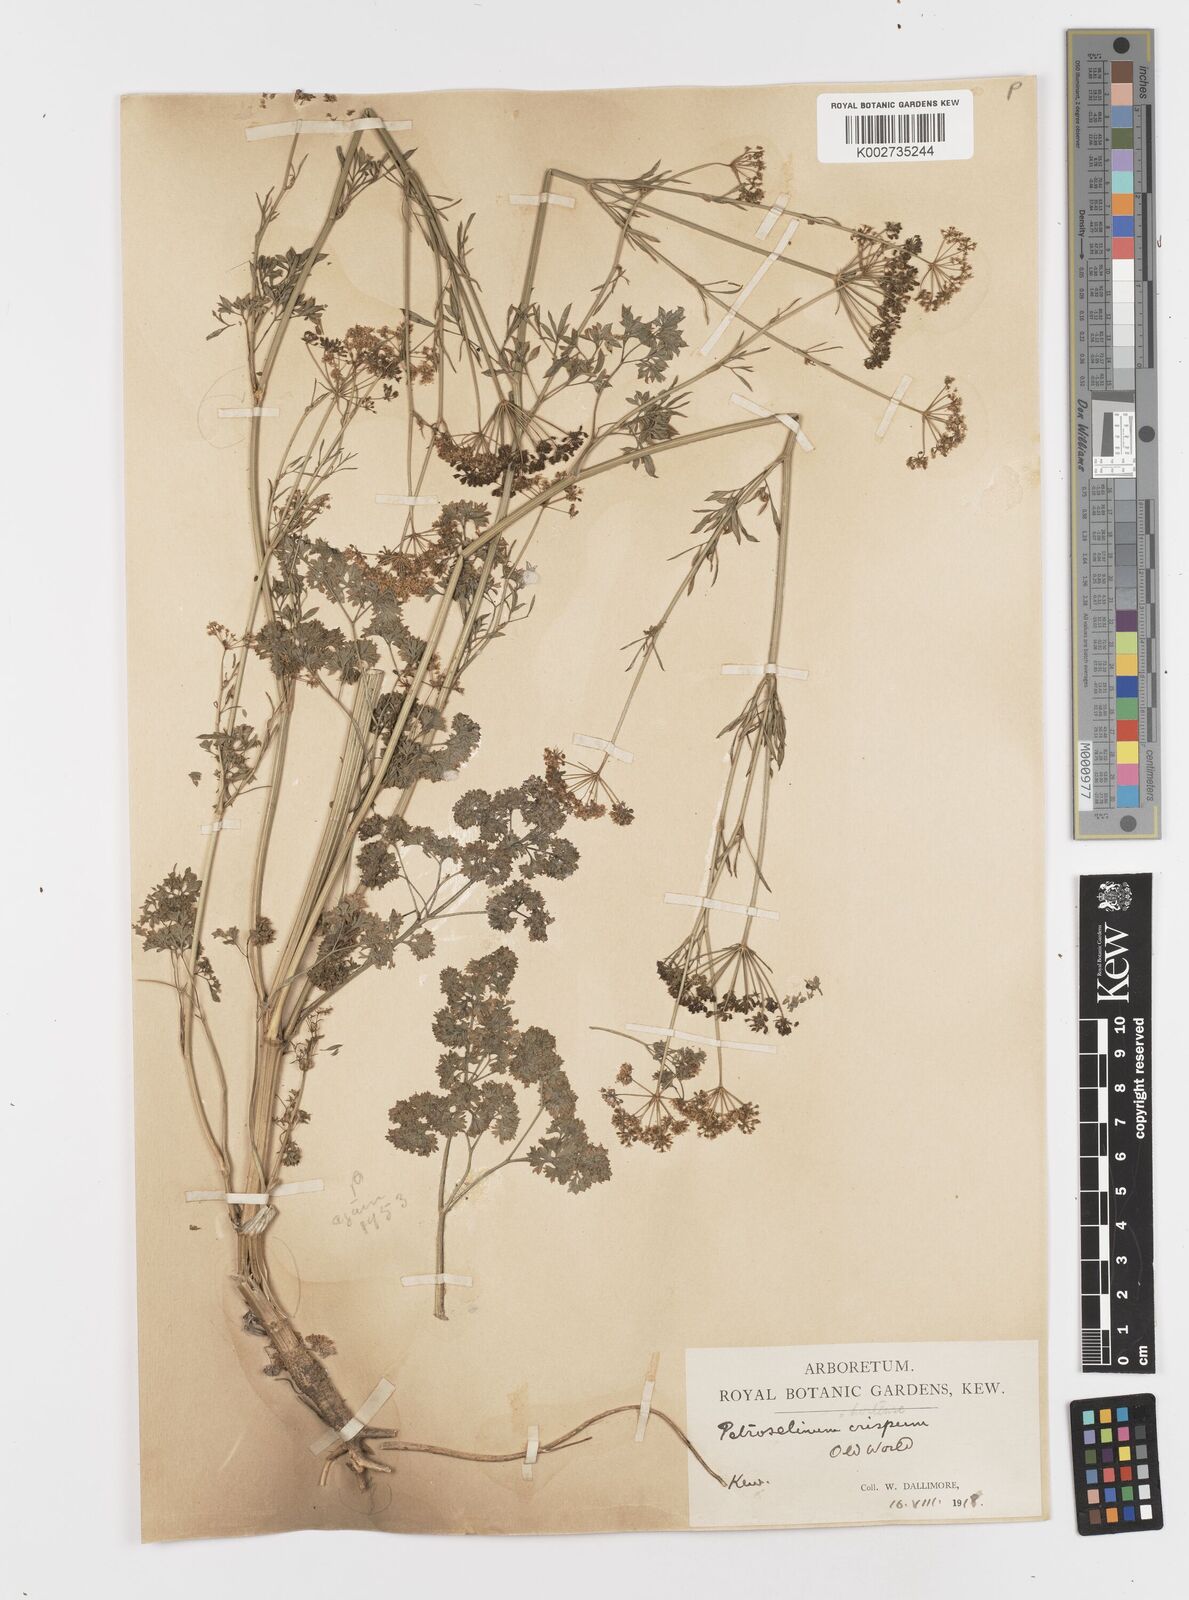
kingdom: Plantae
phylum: Tracheophyta
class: Magnoliopsida
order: Apiales
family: Apiaceae
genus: Petroselinum
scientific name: Petroselinum crispum
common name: Parsley
